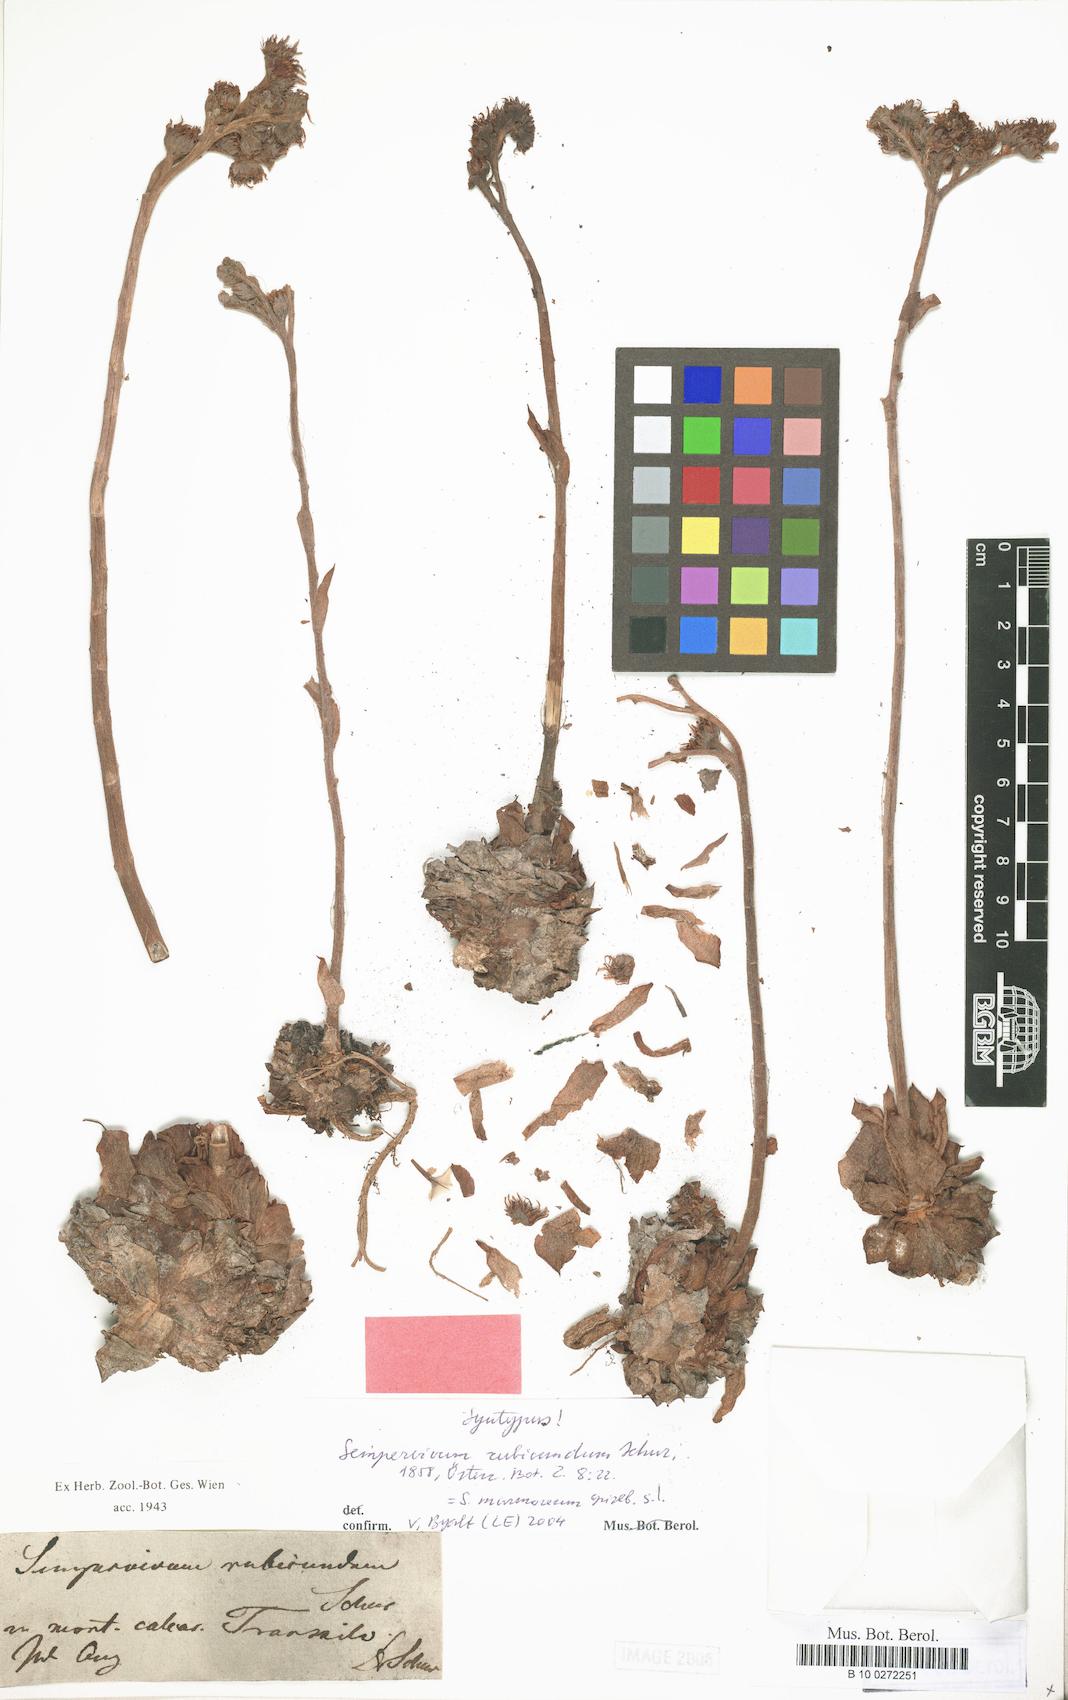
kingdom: Plantae
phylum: Tracheophyta
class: Magnoliopsida
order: Saxifragales
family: Crassulaceae
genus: Sempervivum
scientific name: Sempervivum marmoreum
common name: Houseleek
